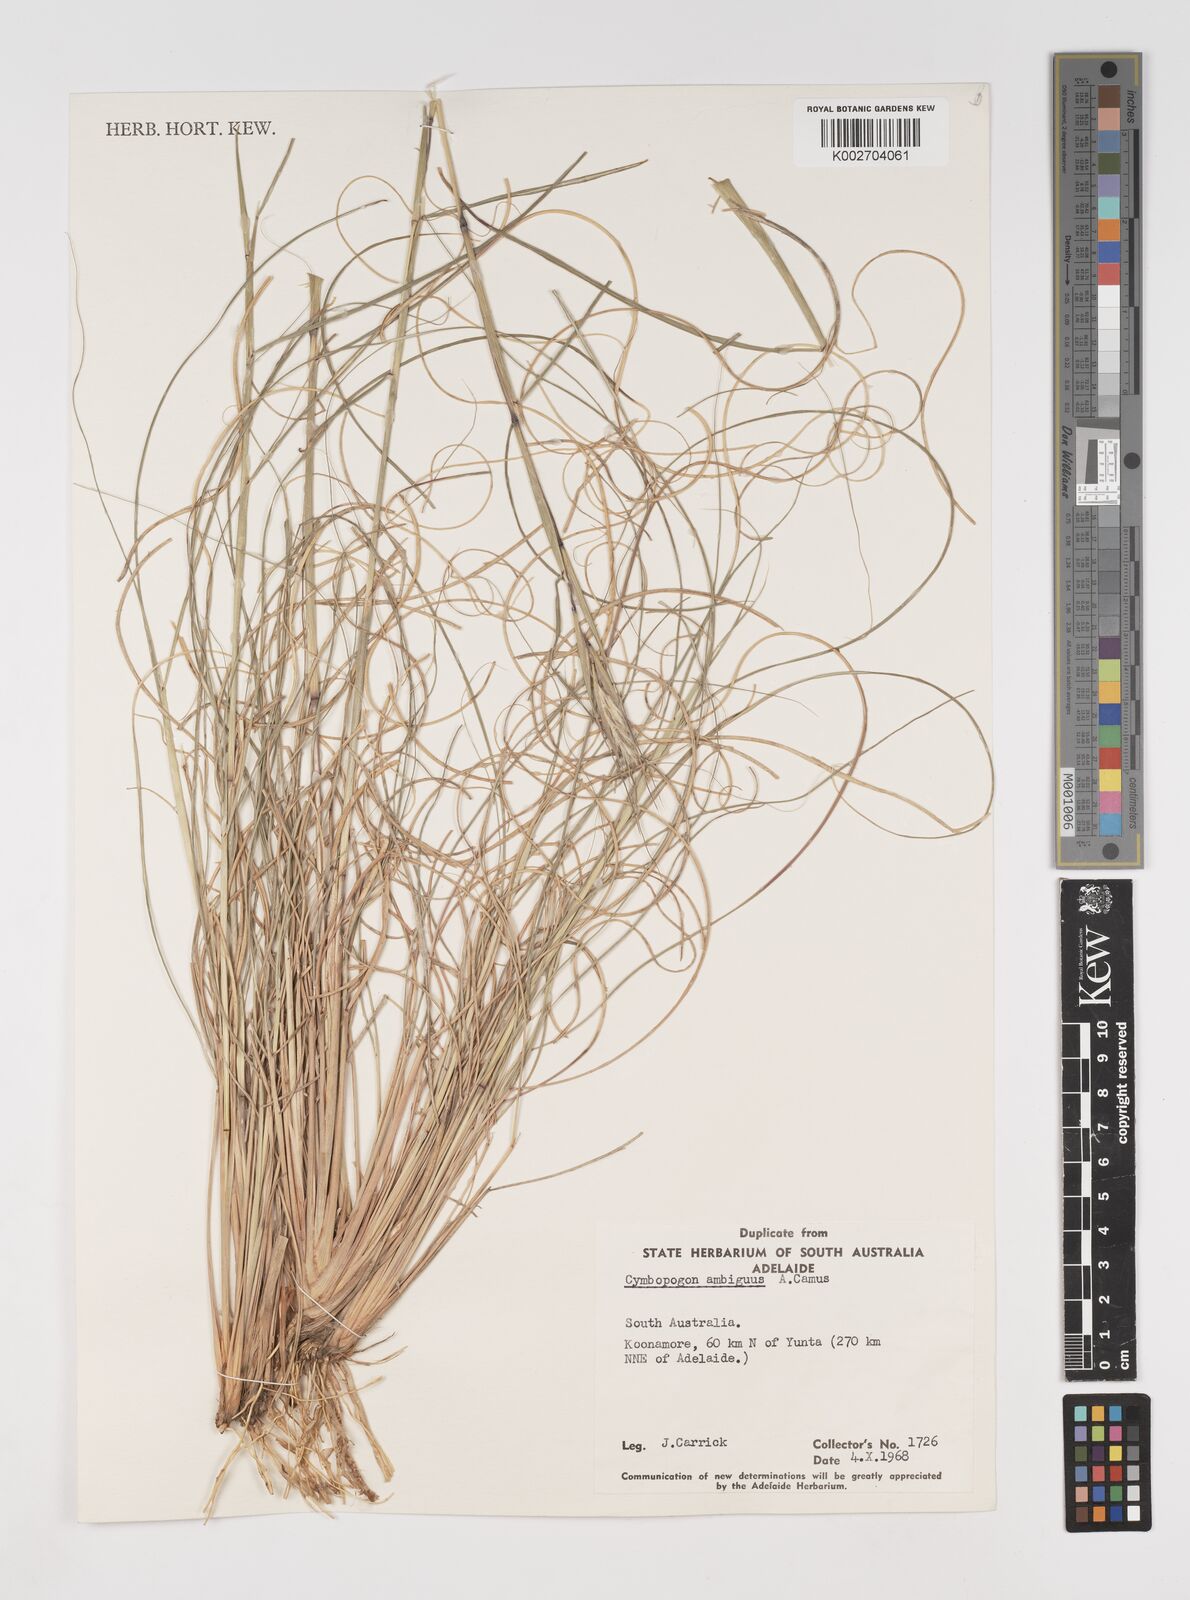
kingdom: Plantae
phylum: Tracheophyta
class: Liliopsida
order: Poales
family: Poaceae
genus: Cymbopogon
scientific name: Cymbopogon ambiguus
